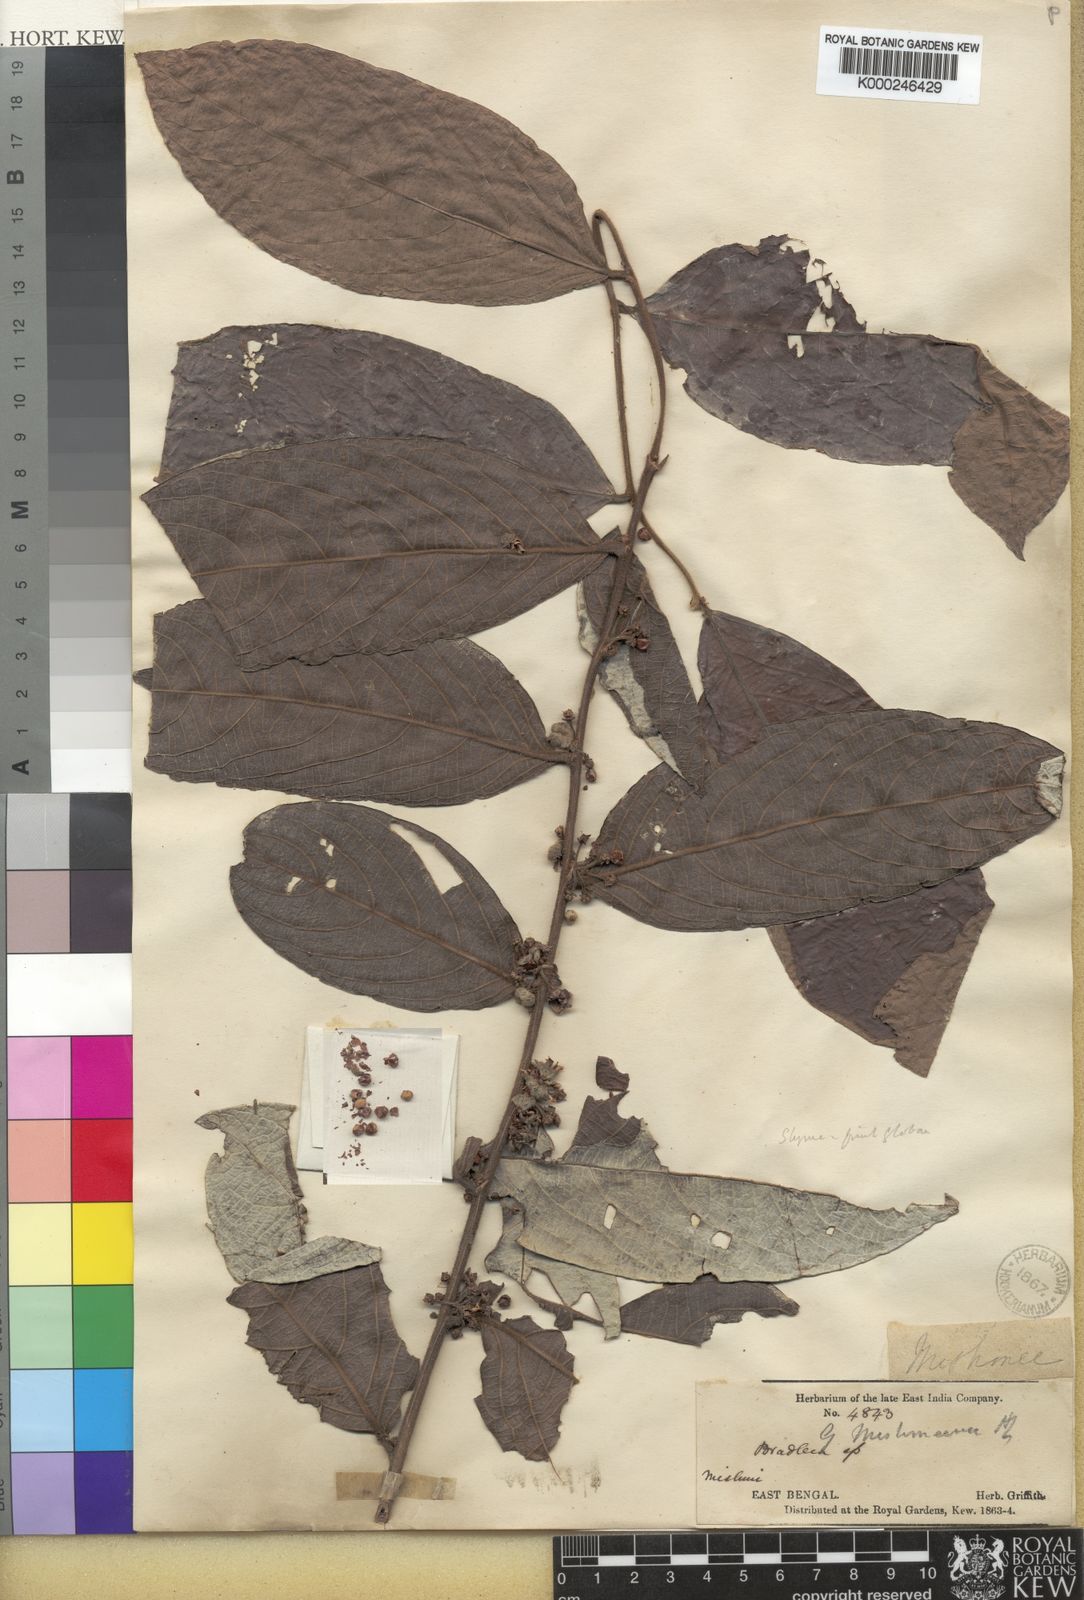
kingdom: Plantae
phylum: Tracheophyta
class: Magnoliopsida
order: Malpighiales
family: Phyllanthaceae
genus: Glochidion
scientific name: Glochidion zeylanicum
